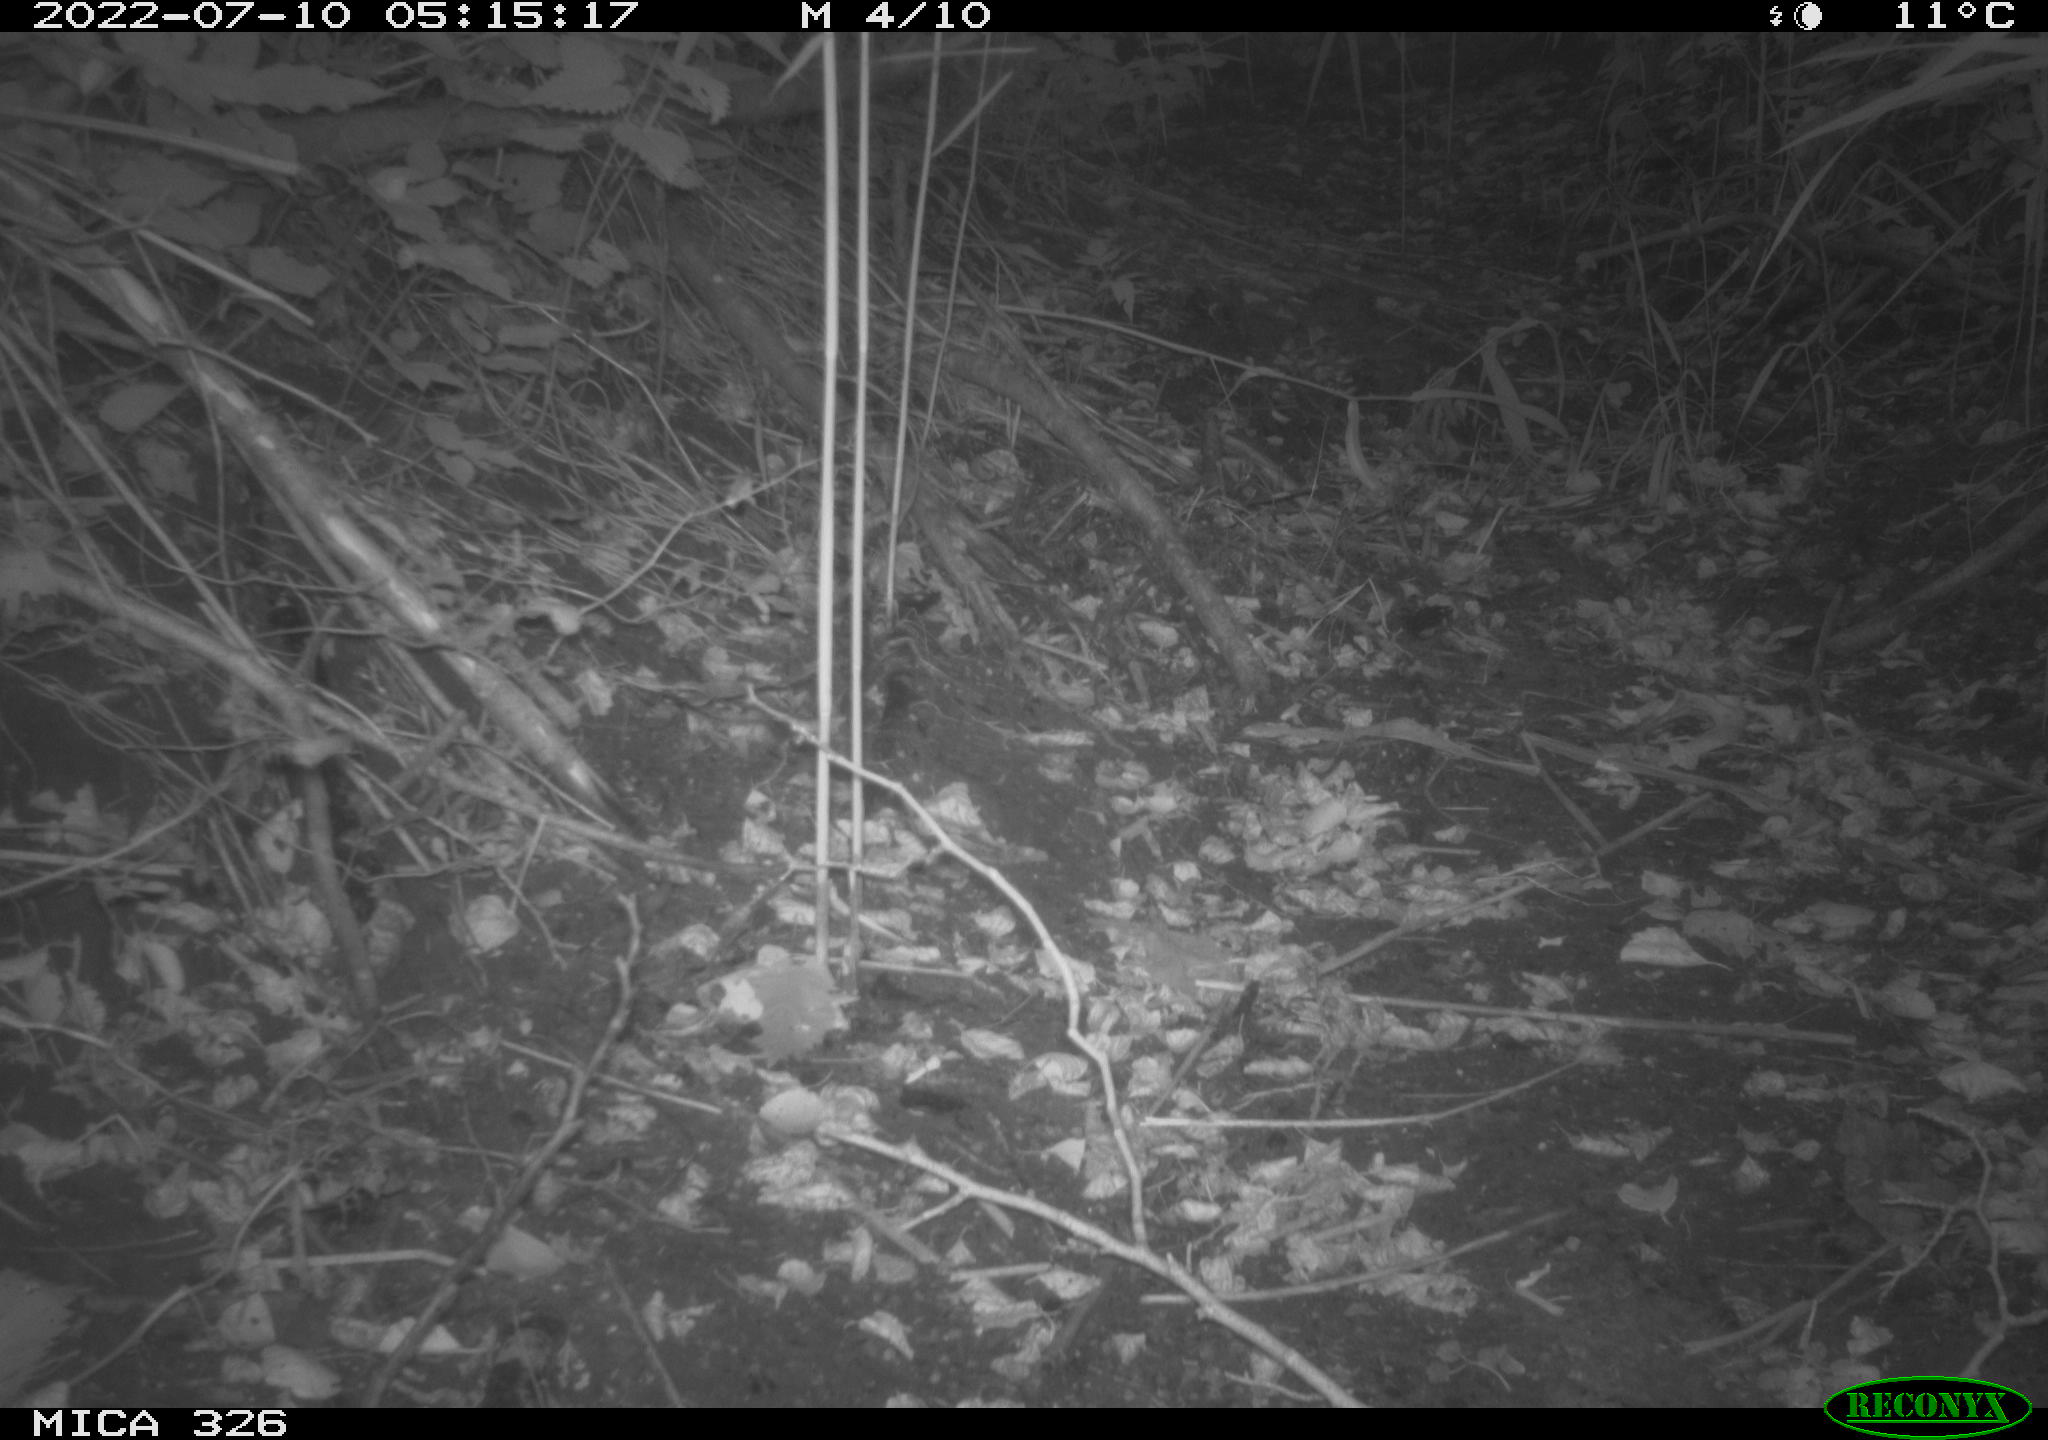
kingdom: Animalia
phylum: Chordata
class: Mammalia
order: Lagomorpha
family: Leporidae
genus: Lepus
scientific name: Lepus europaeus
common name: European hare
